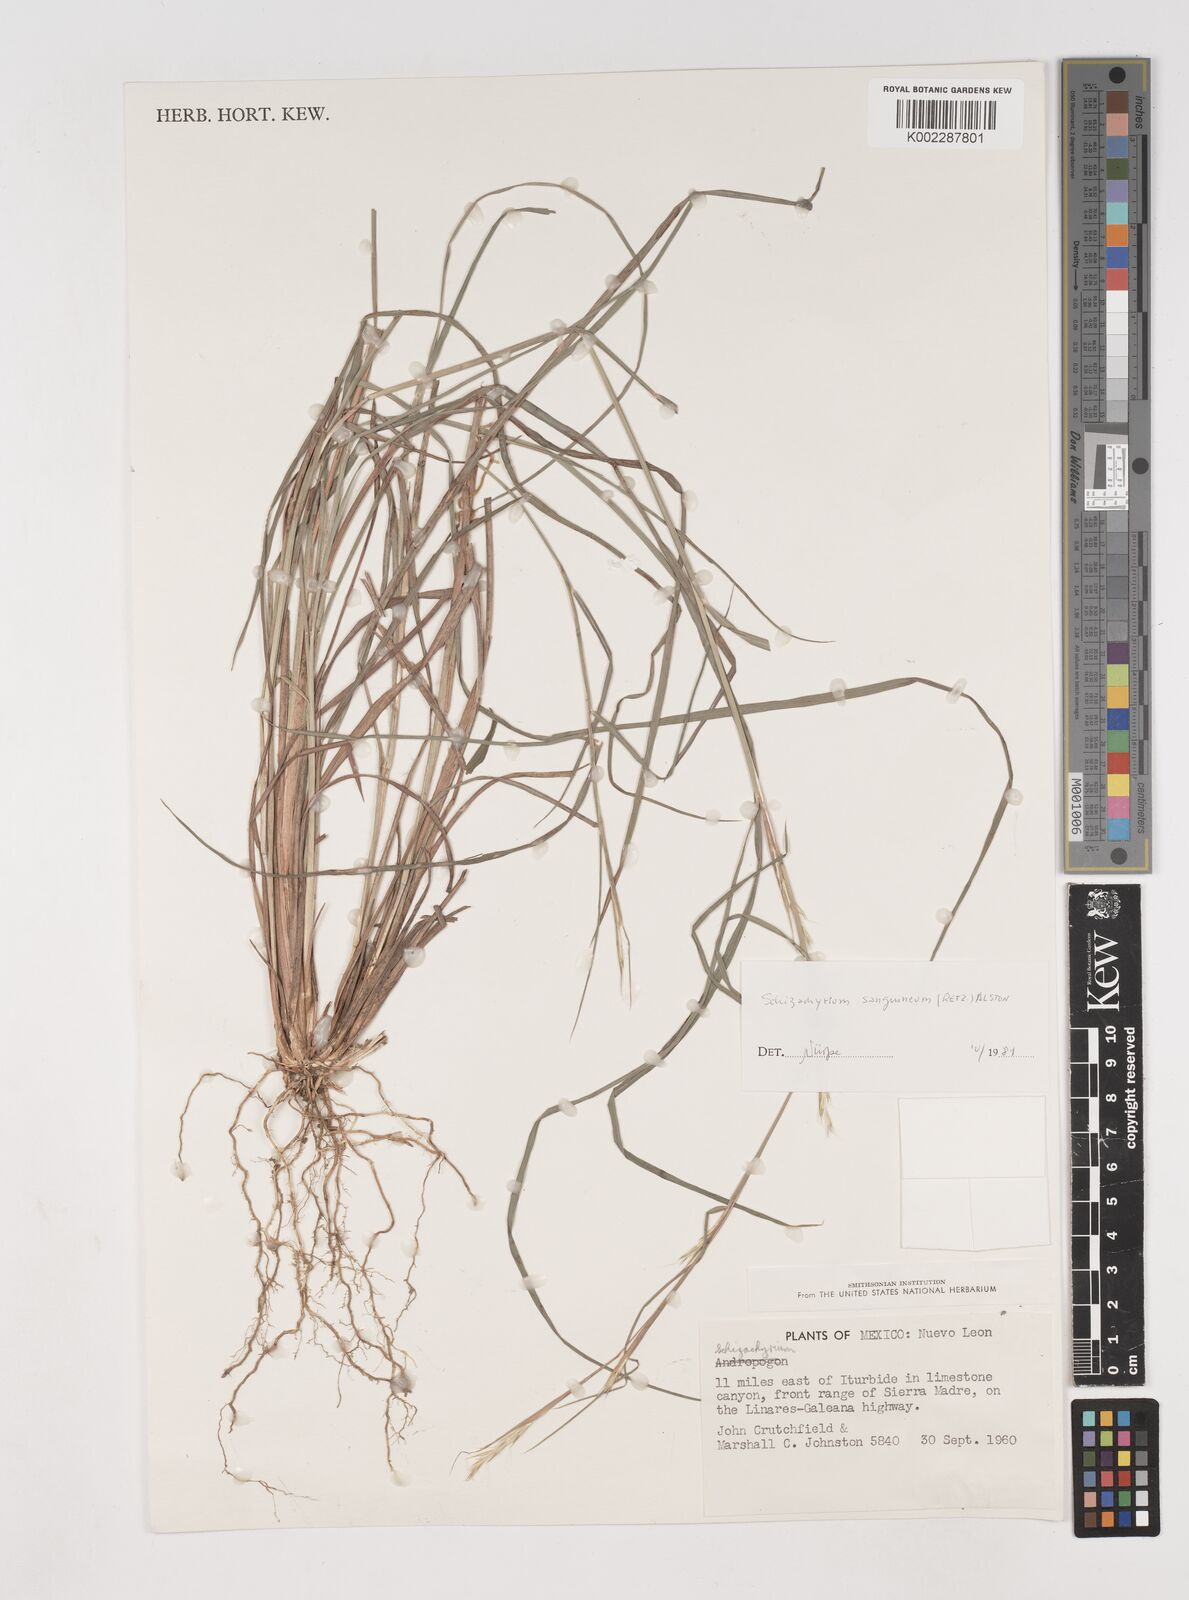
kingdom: Plantae
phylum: Tracheophyta
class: Liliopsida
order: Poales
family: Poaceae
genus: Schizachyrium
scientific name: Schizachyrium sanguineum
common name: Crimson bluestem
